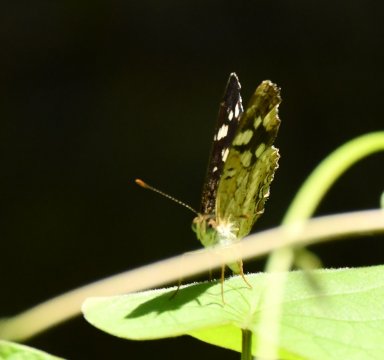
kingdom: Animalia
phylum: Arthropoda
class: Insecta
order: Lepidoptera
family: Nymphalidae
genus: Anthanassa
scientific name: Anthanassa tulcis
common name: Pale-banded Crescent
